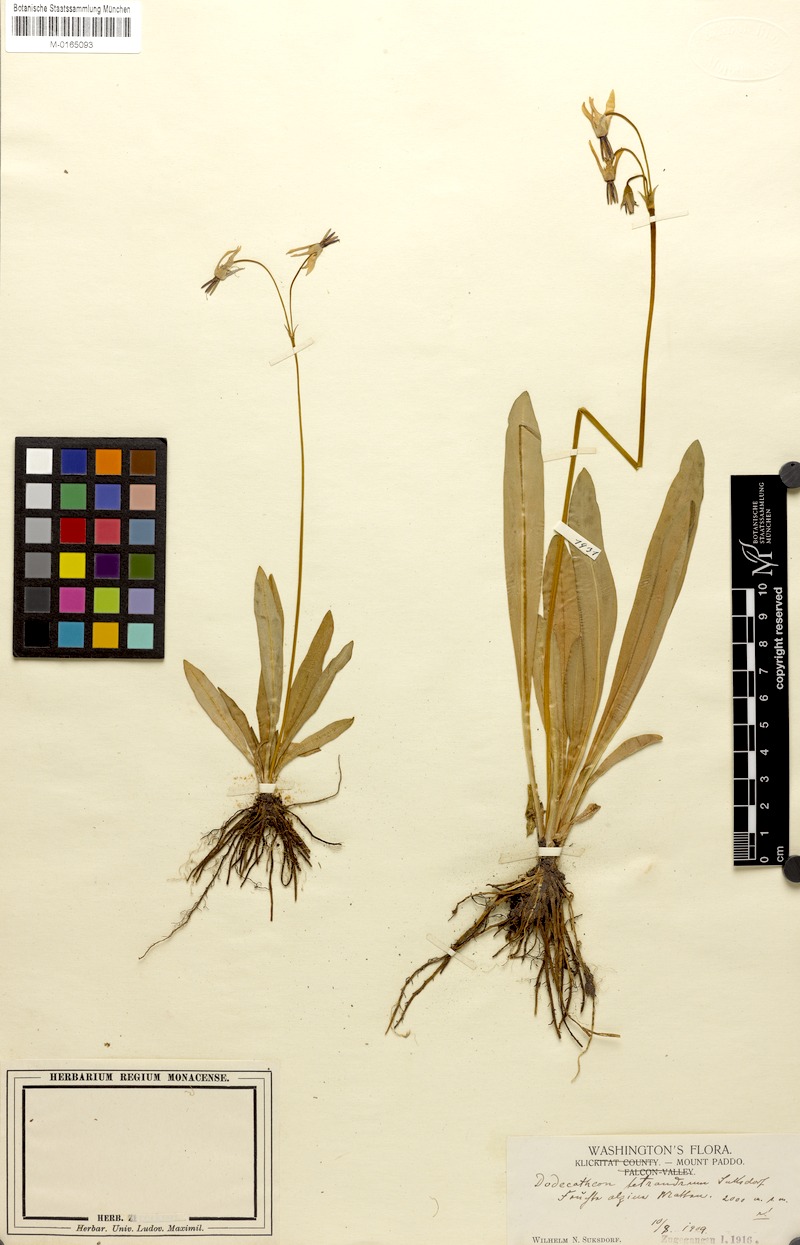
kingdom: Plantae
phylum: Tracheophyta
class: Magnoliopsida
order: Ericales
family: Primulaceae
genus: Dodecatheon
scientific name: Dodecatheon jeffreyanum
